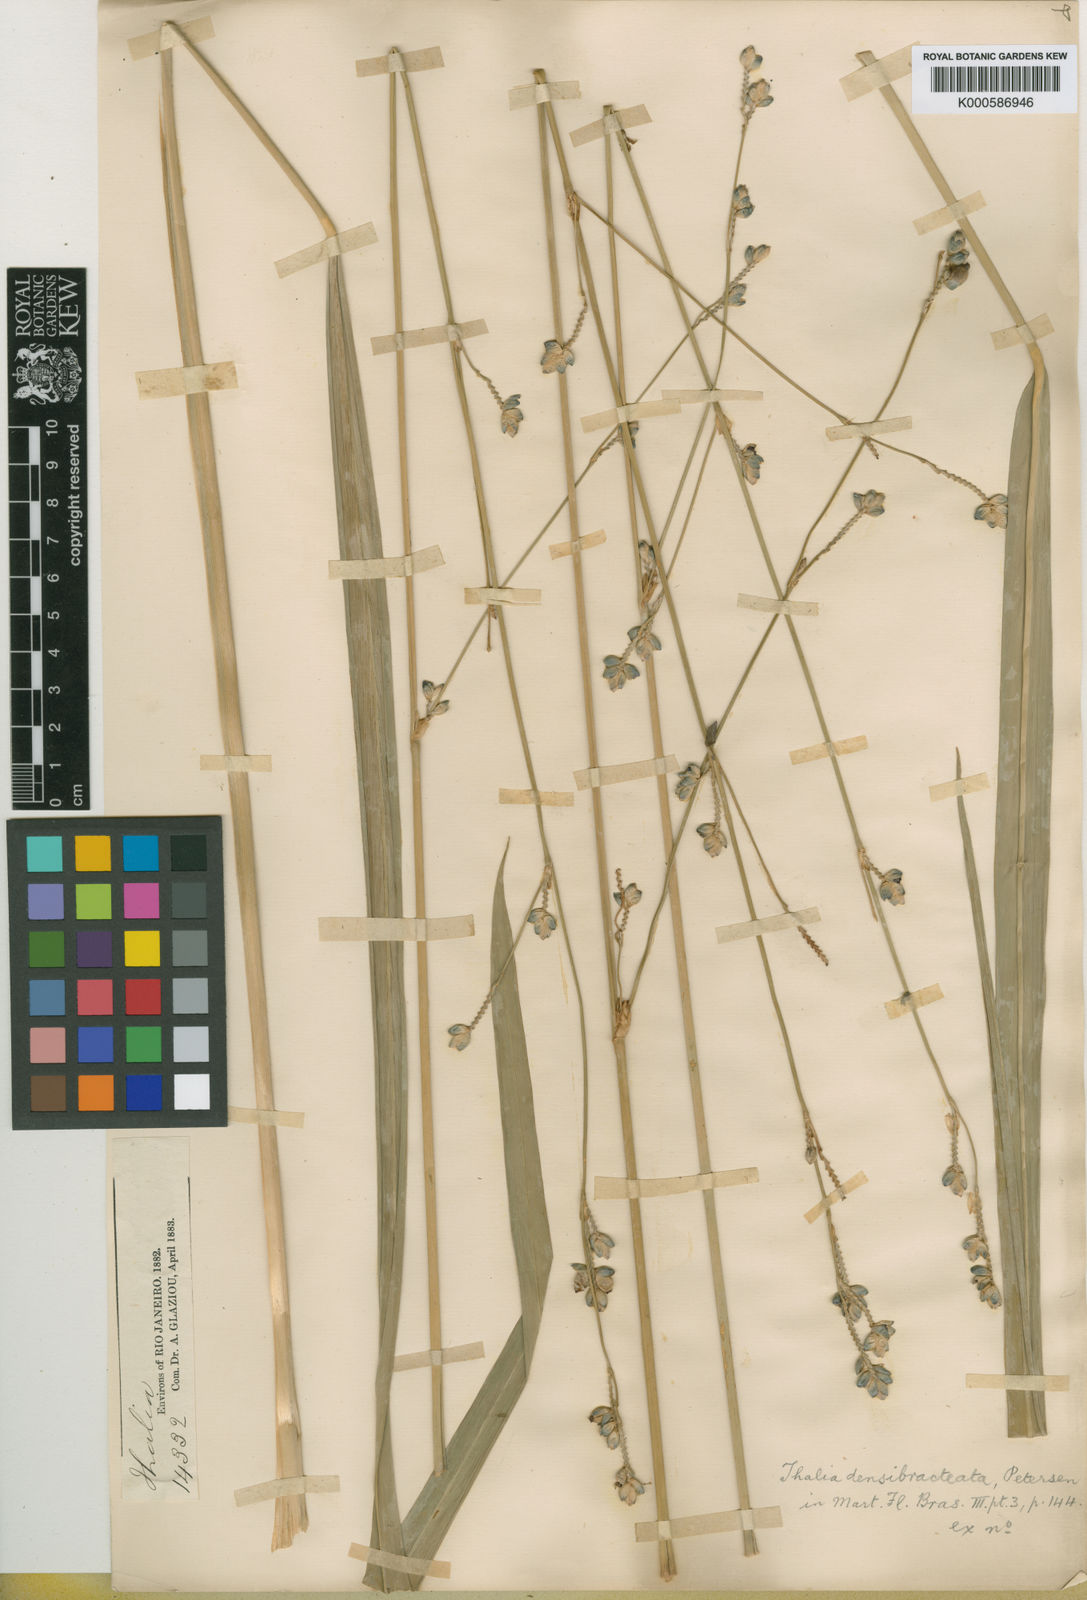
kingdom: Plantae
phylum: Tracheophyta
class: Liliopsida
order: Zingiberales
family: Marantaceae
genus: Thalia
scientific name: Thalia densibracteata
